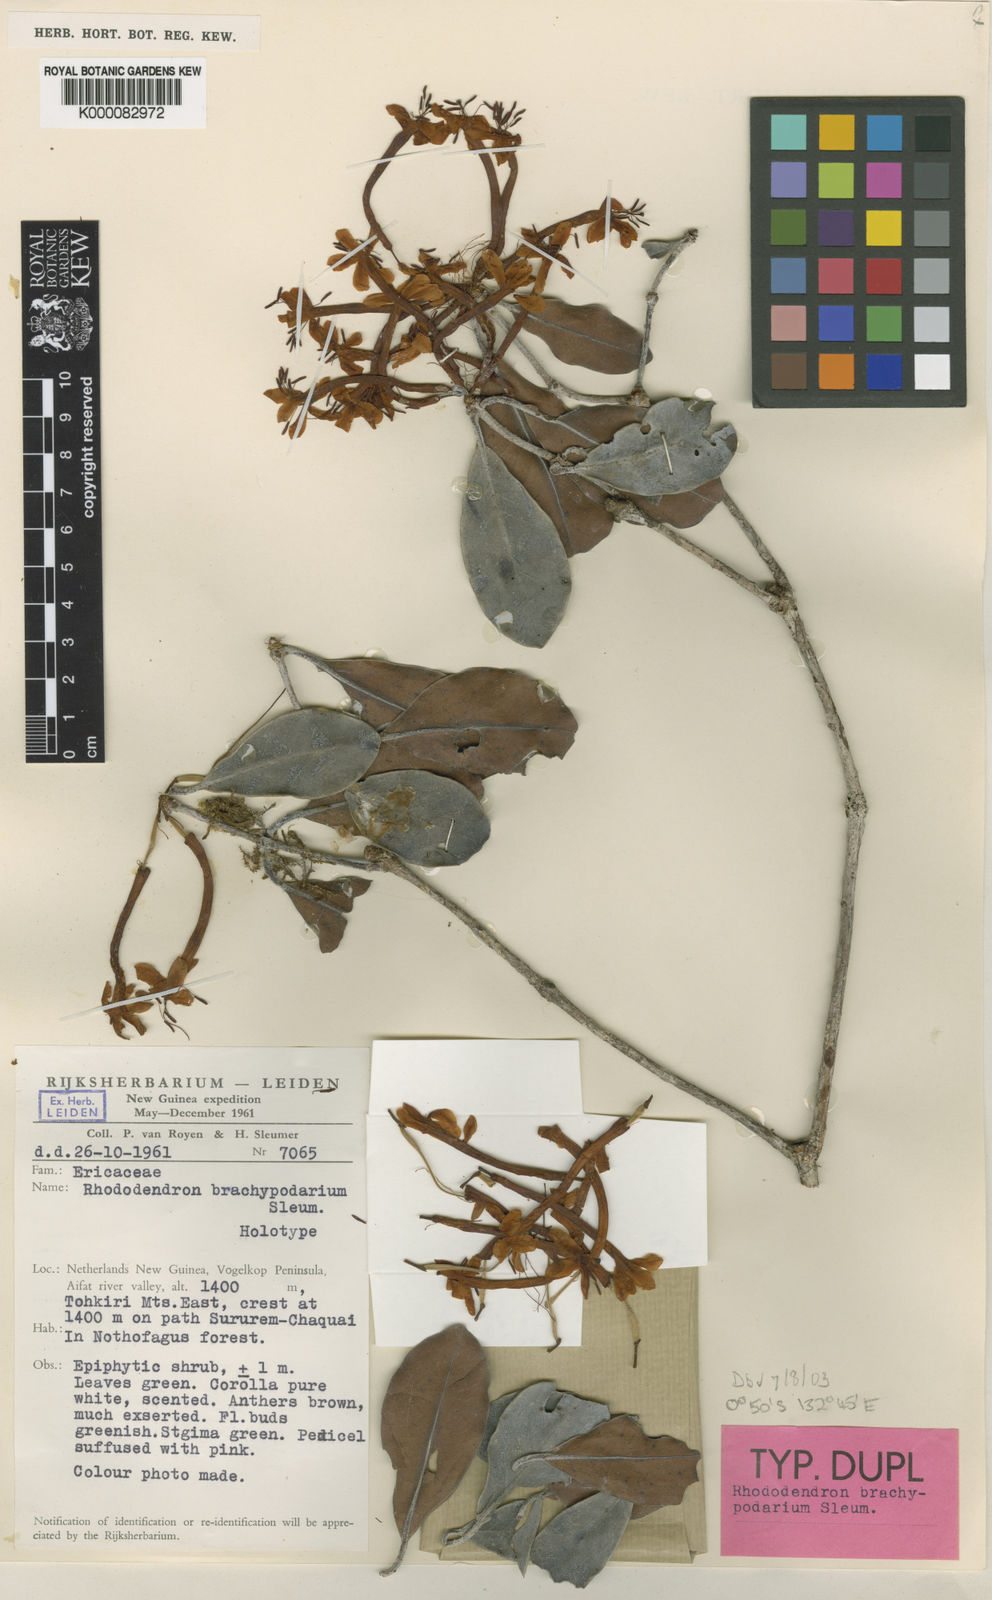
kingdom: Plantae
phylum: Tracheophyta
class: Magnoliopsida
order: Ericales
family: Ericaceae
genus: Rhododendron
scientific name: Rhododendron brachypodarium
